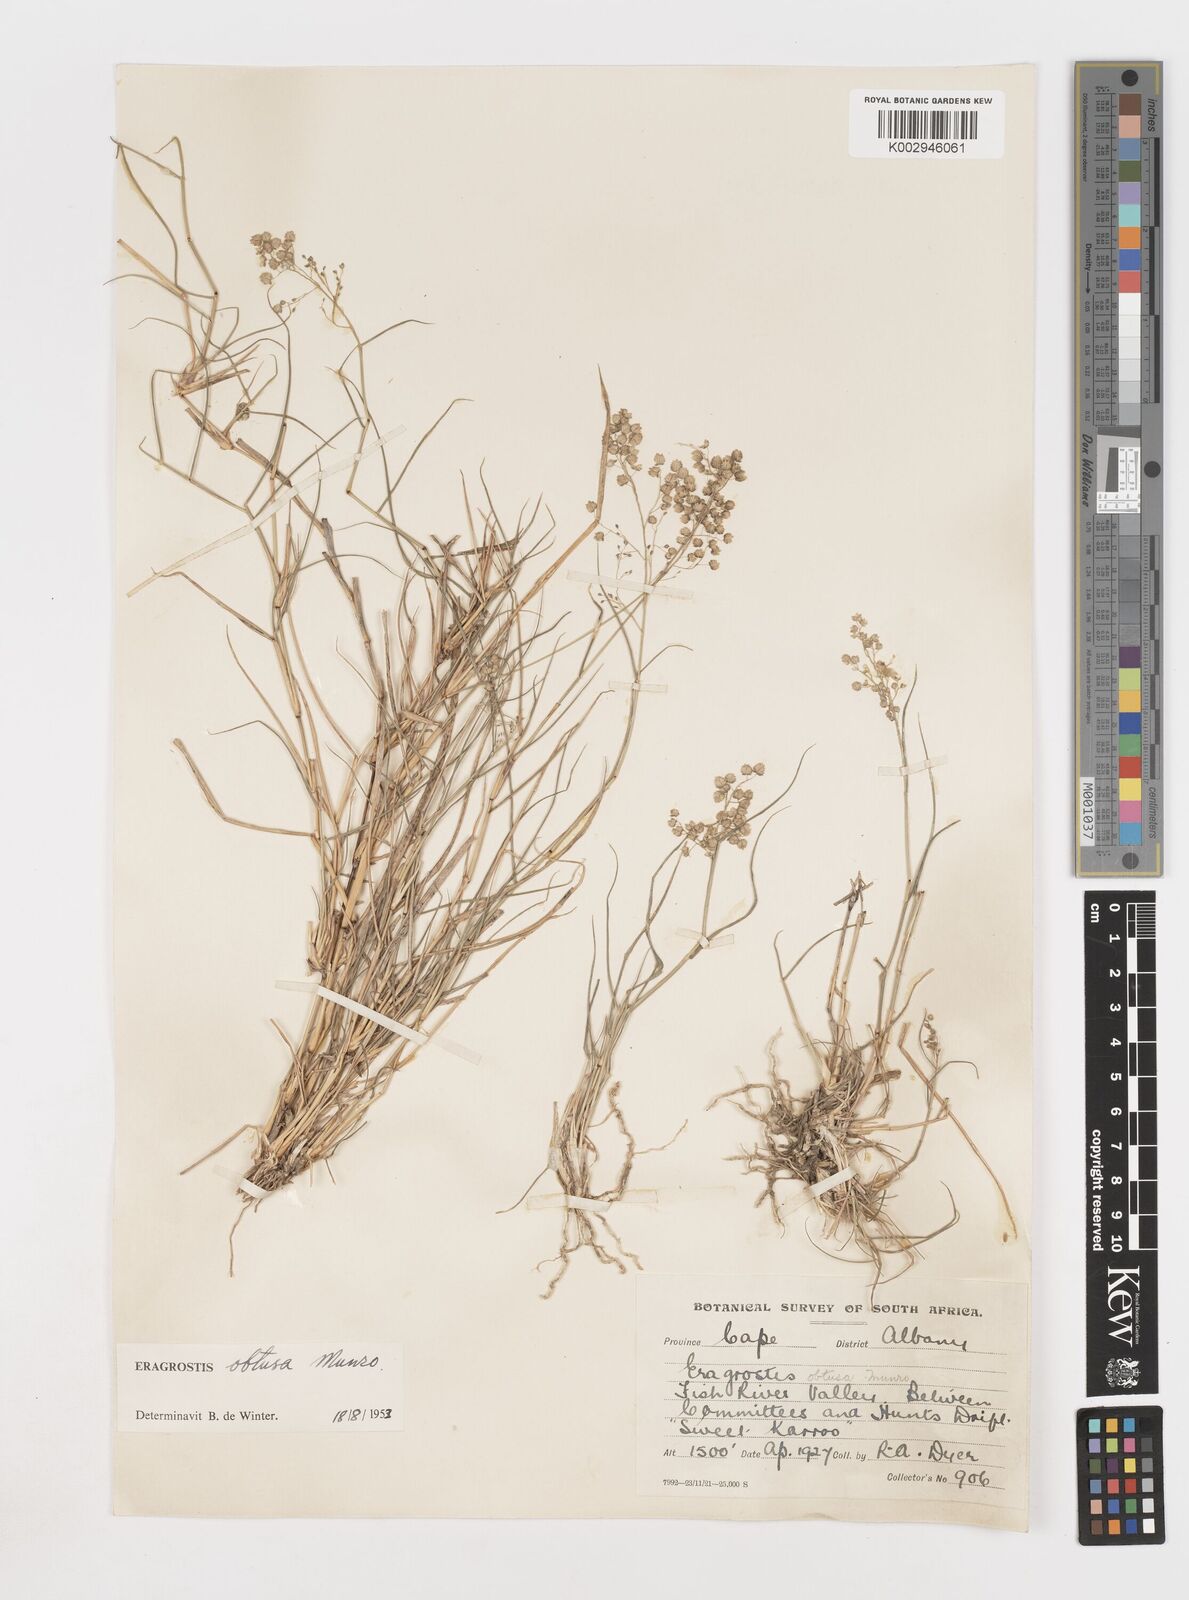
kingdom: Plantae
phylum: Tracheophyta
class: Liliopsida
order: Poales
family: Poaceae
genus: Eragrostis
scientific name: Eragrostis obtusa
